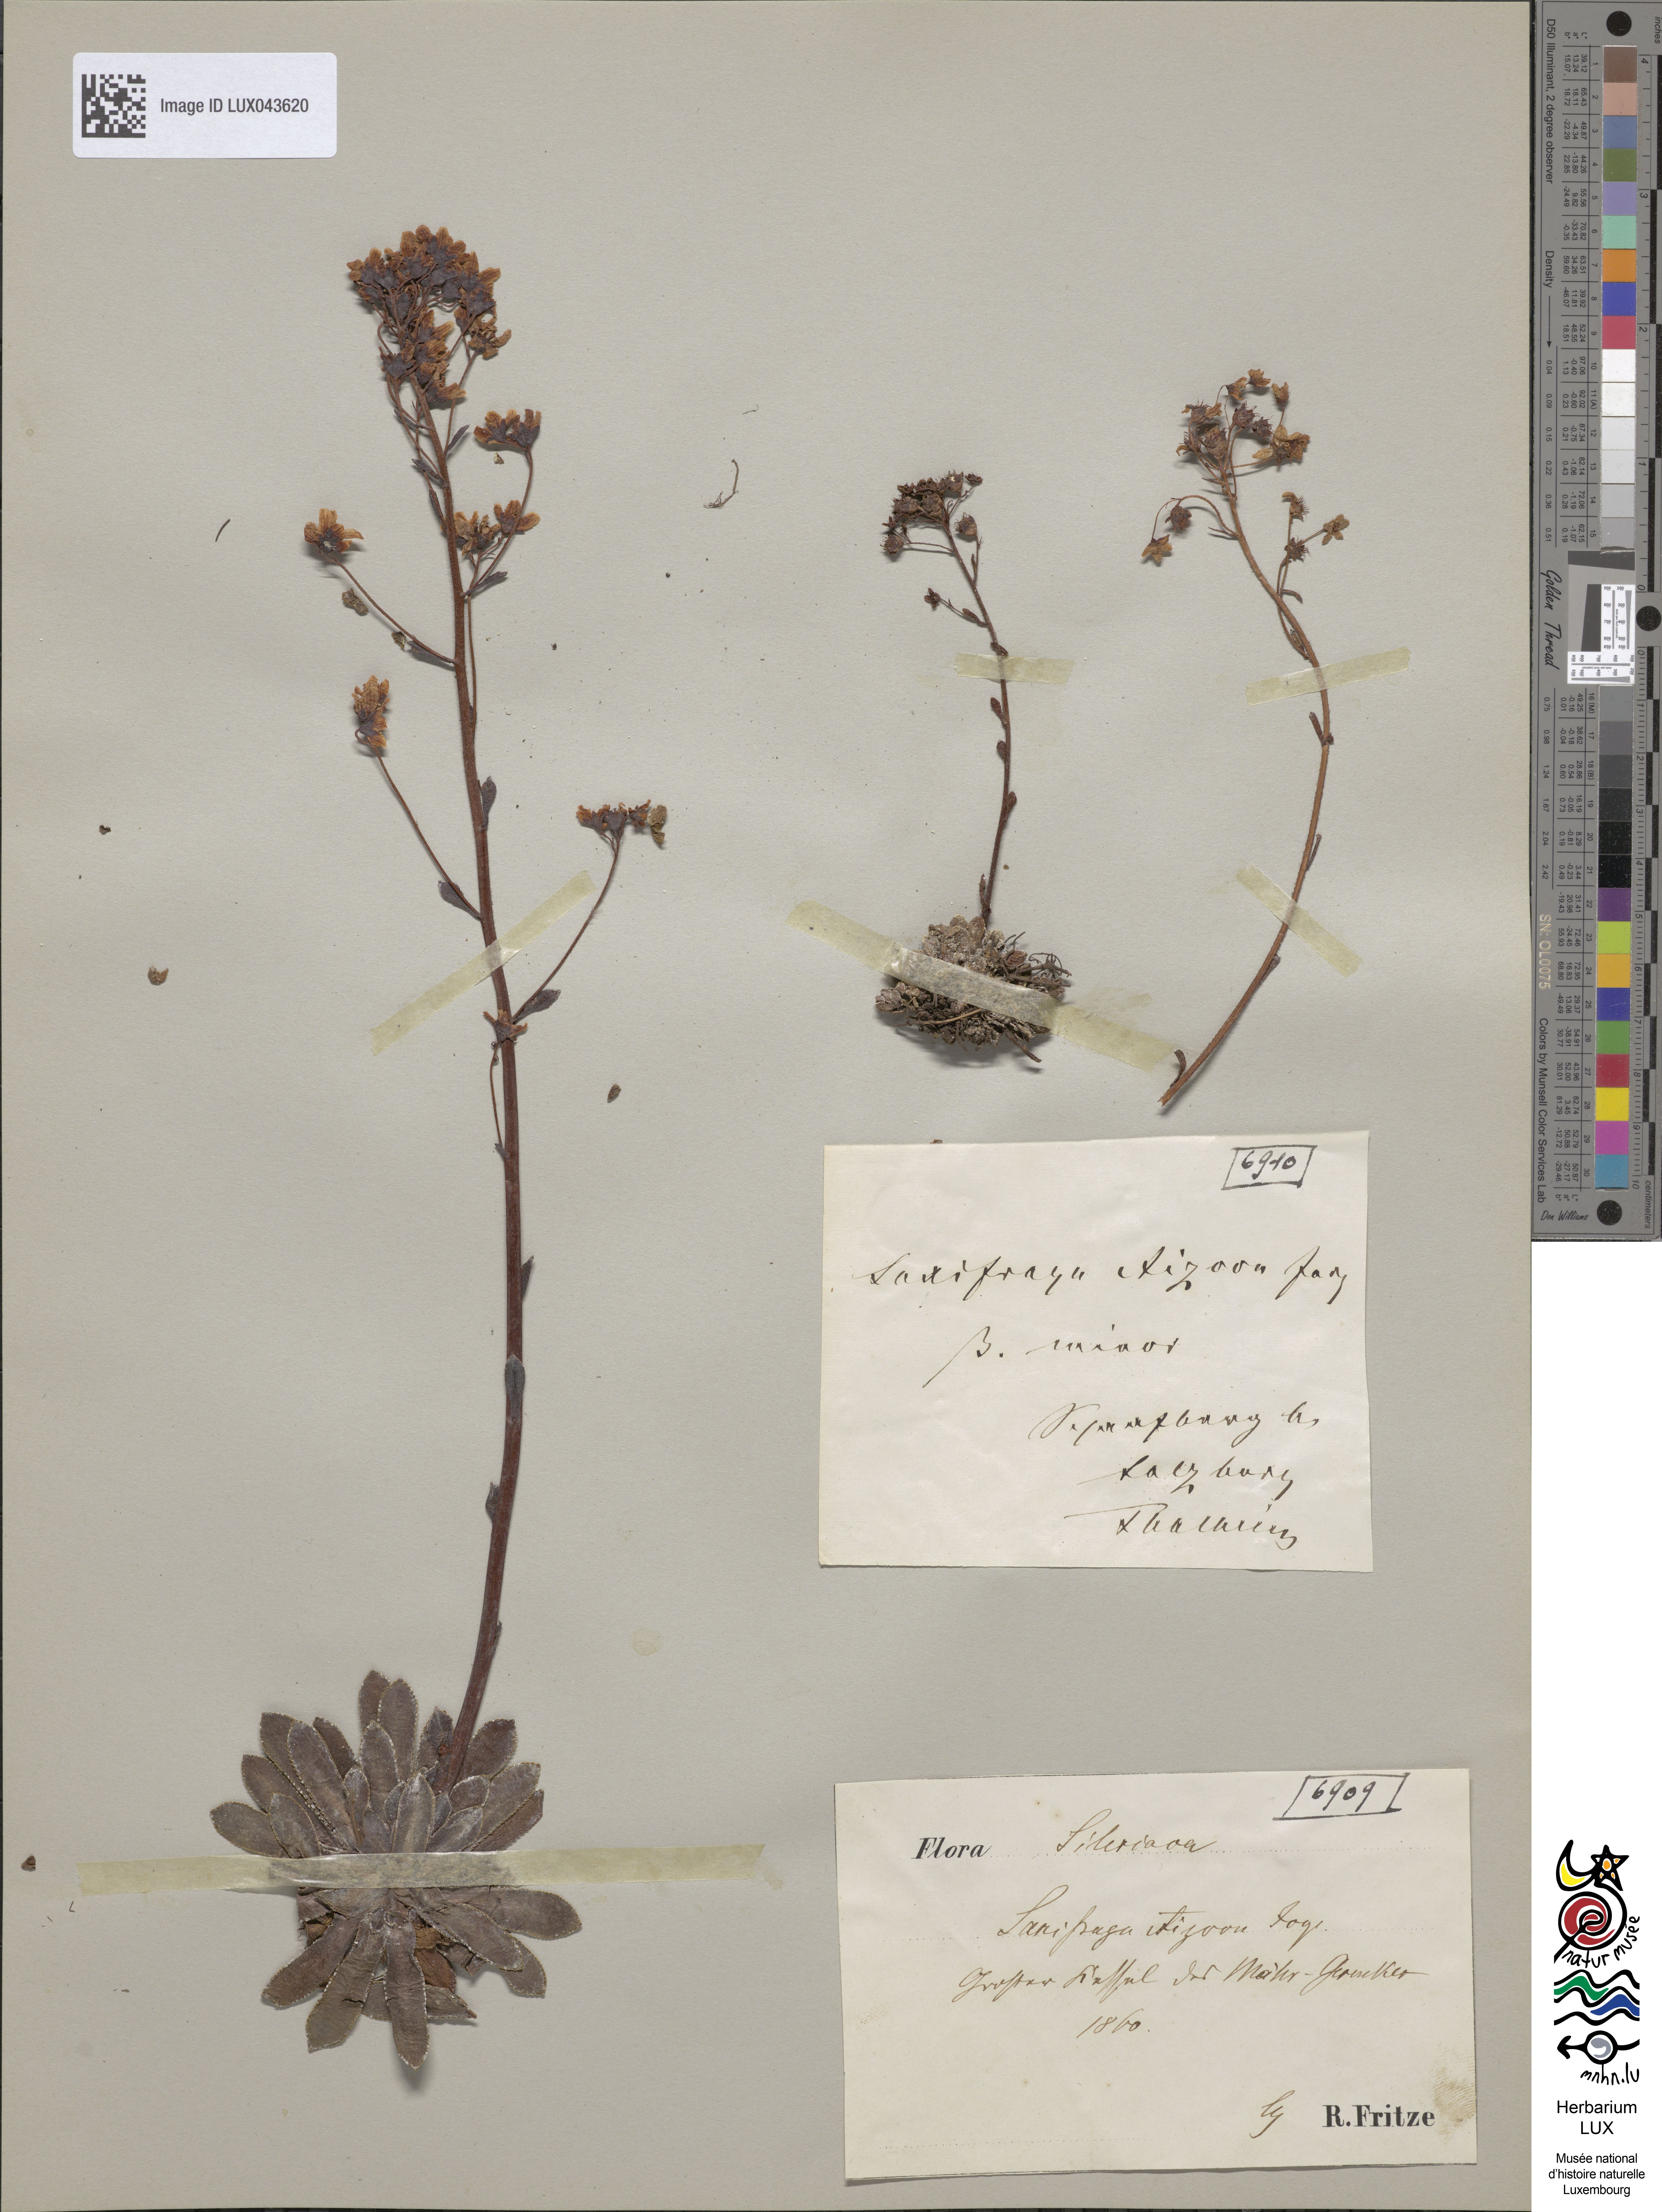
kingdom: Plantae
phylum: Tracheophyta
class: Magnoliopsida
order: Saxifragales
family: Saxifragaceae
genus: Saxifraga
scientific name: Saxifraga paniculata
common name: Livelong saxifrage
